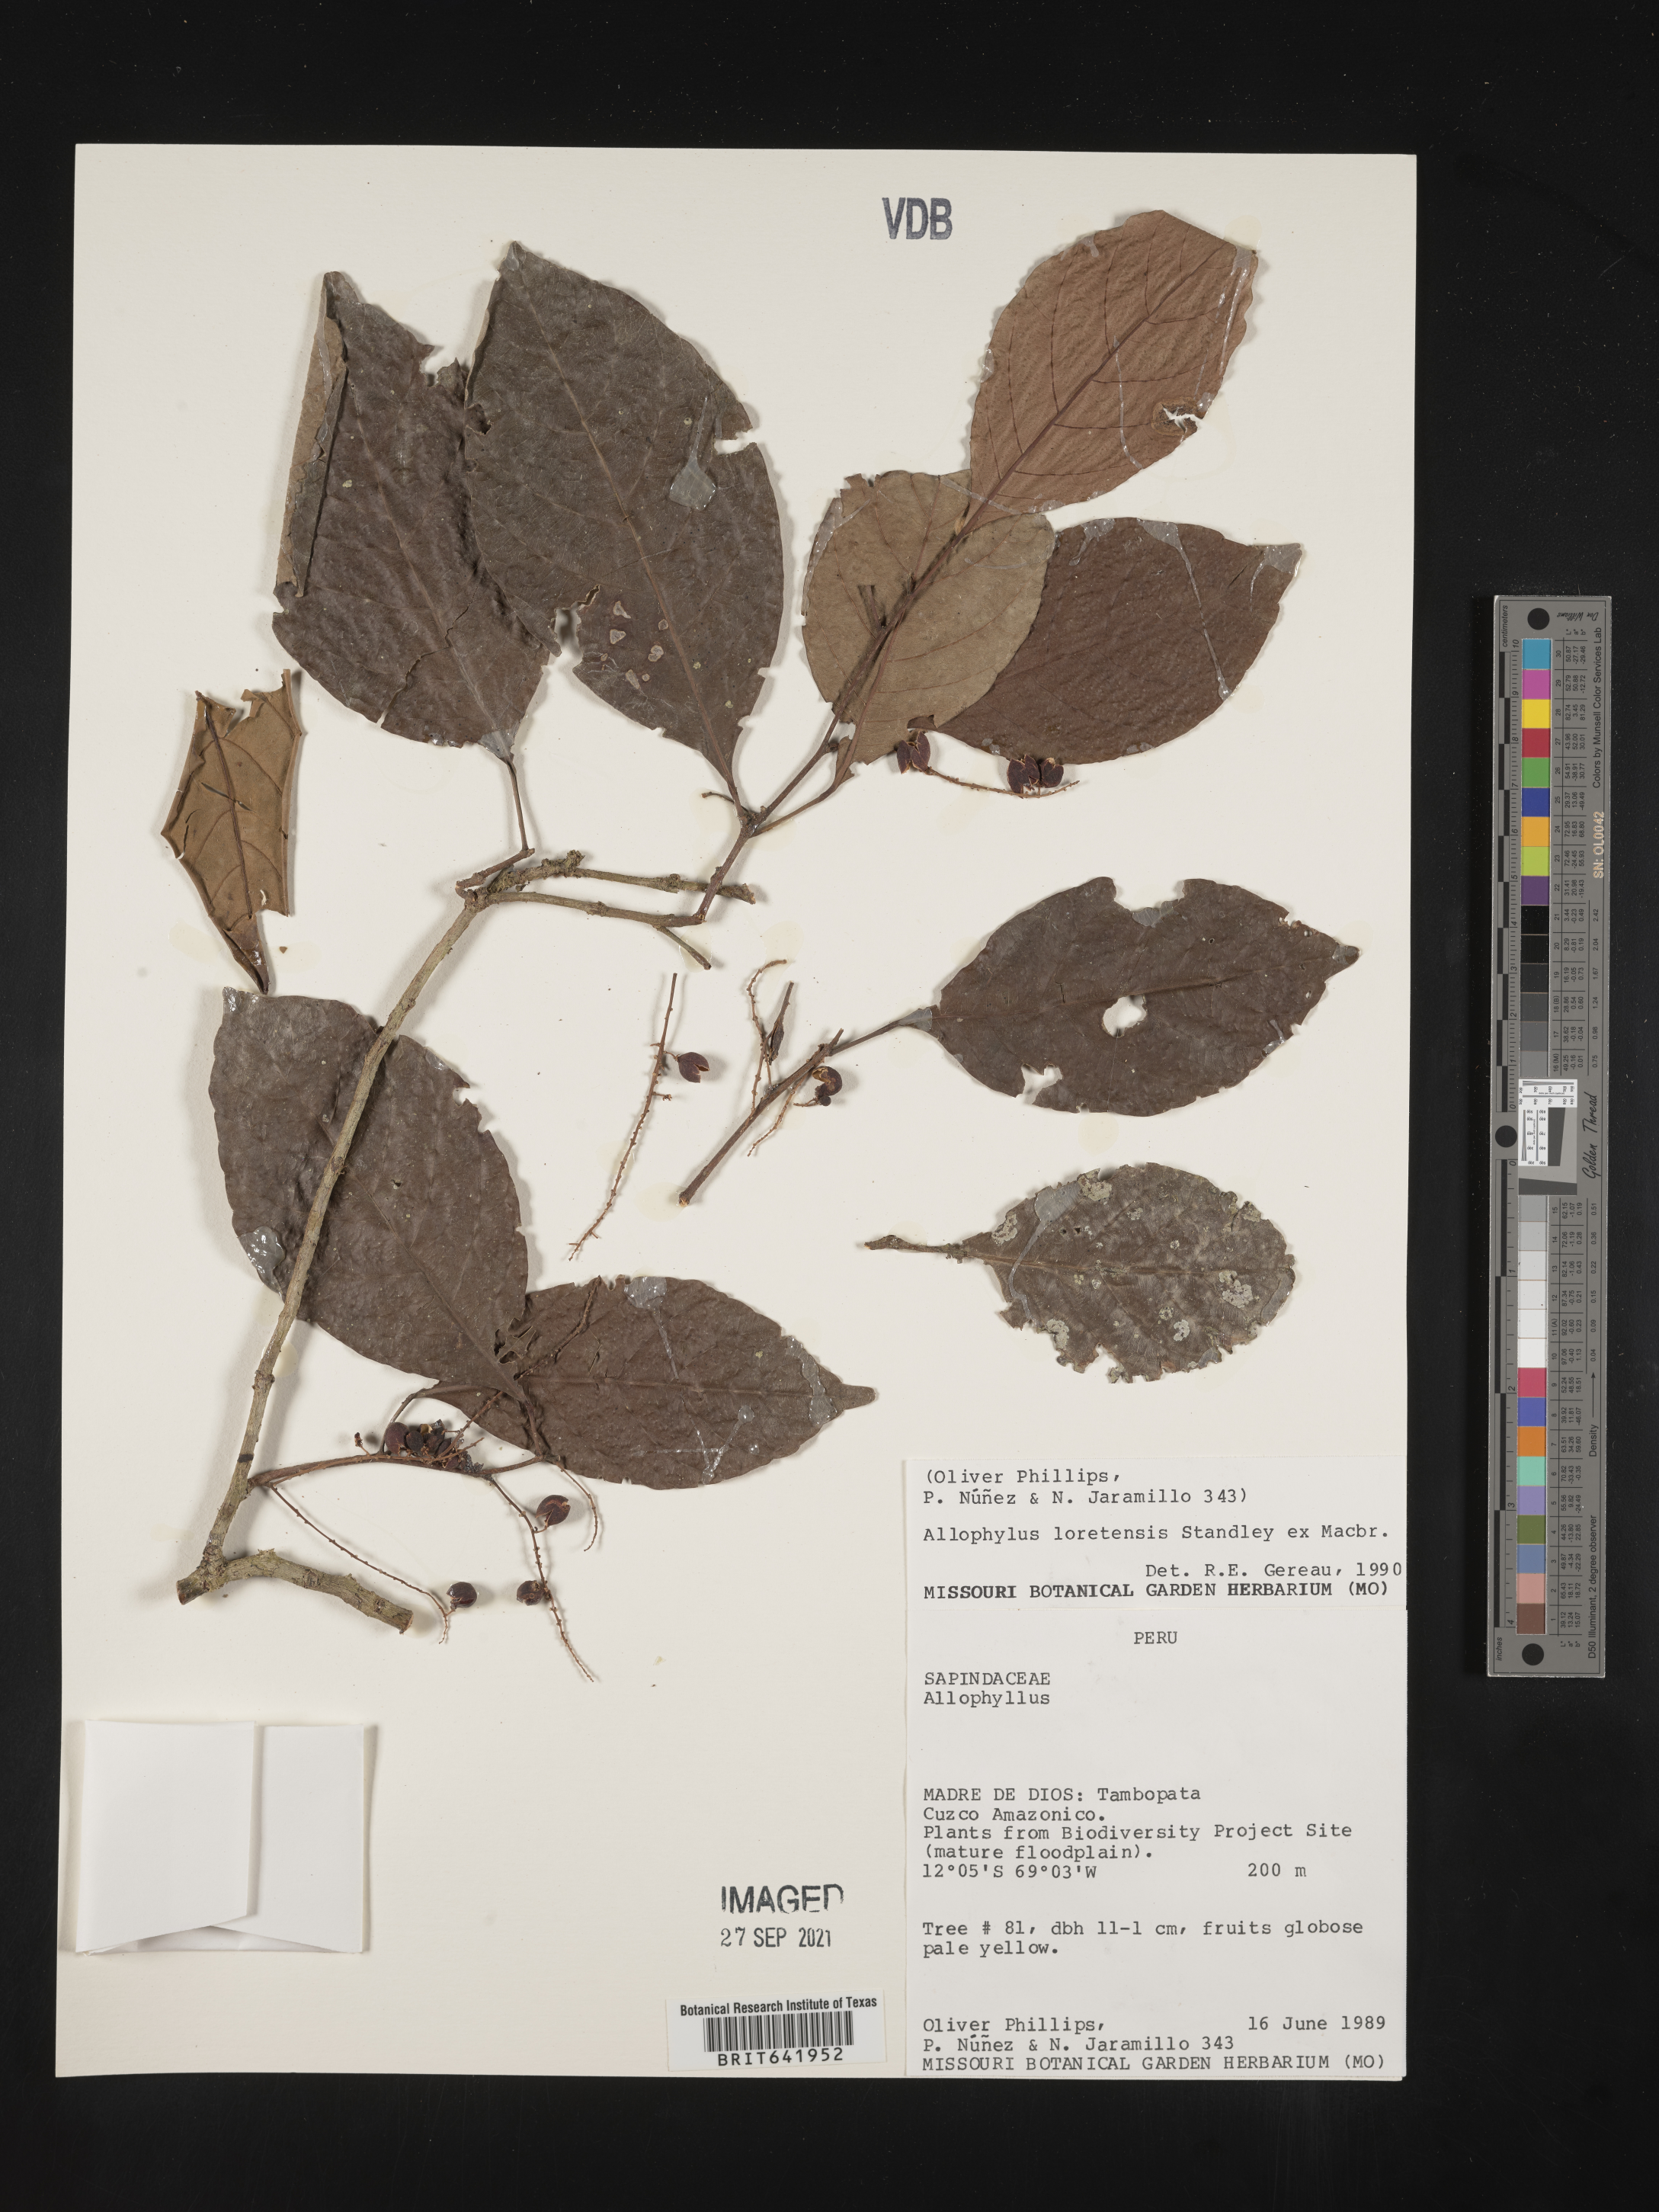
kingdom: Plantae
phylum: Tracheophyta
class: Magnoliopsida
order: Sapindales
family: Sapindaceae
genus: Allophylus
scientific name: Allophylus
